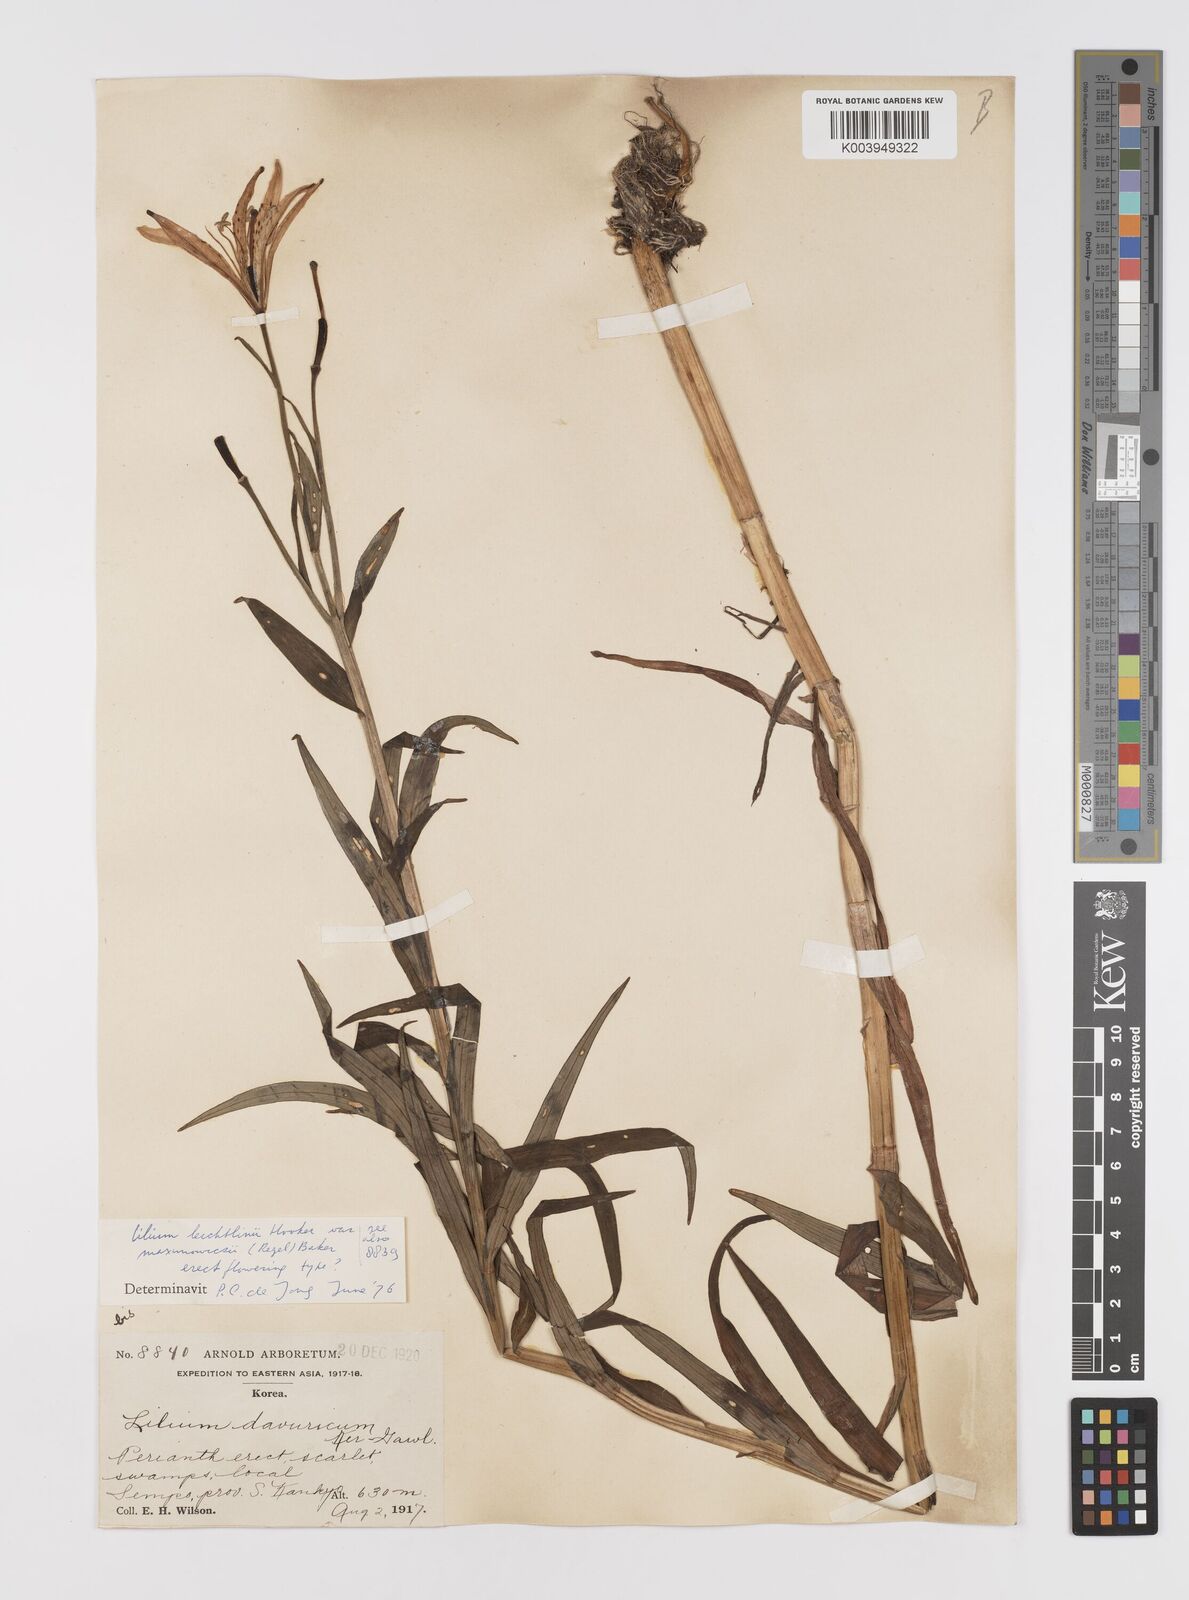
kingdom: Plantae
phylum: Tracheophyta
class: Liliopsida
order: Liliales
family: Liliaceae
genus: Lilium
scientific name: Lilium leichtlinii
